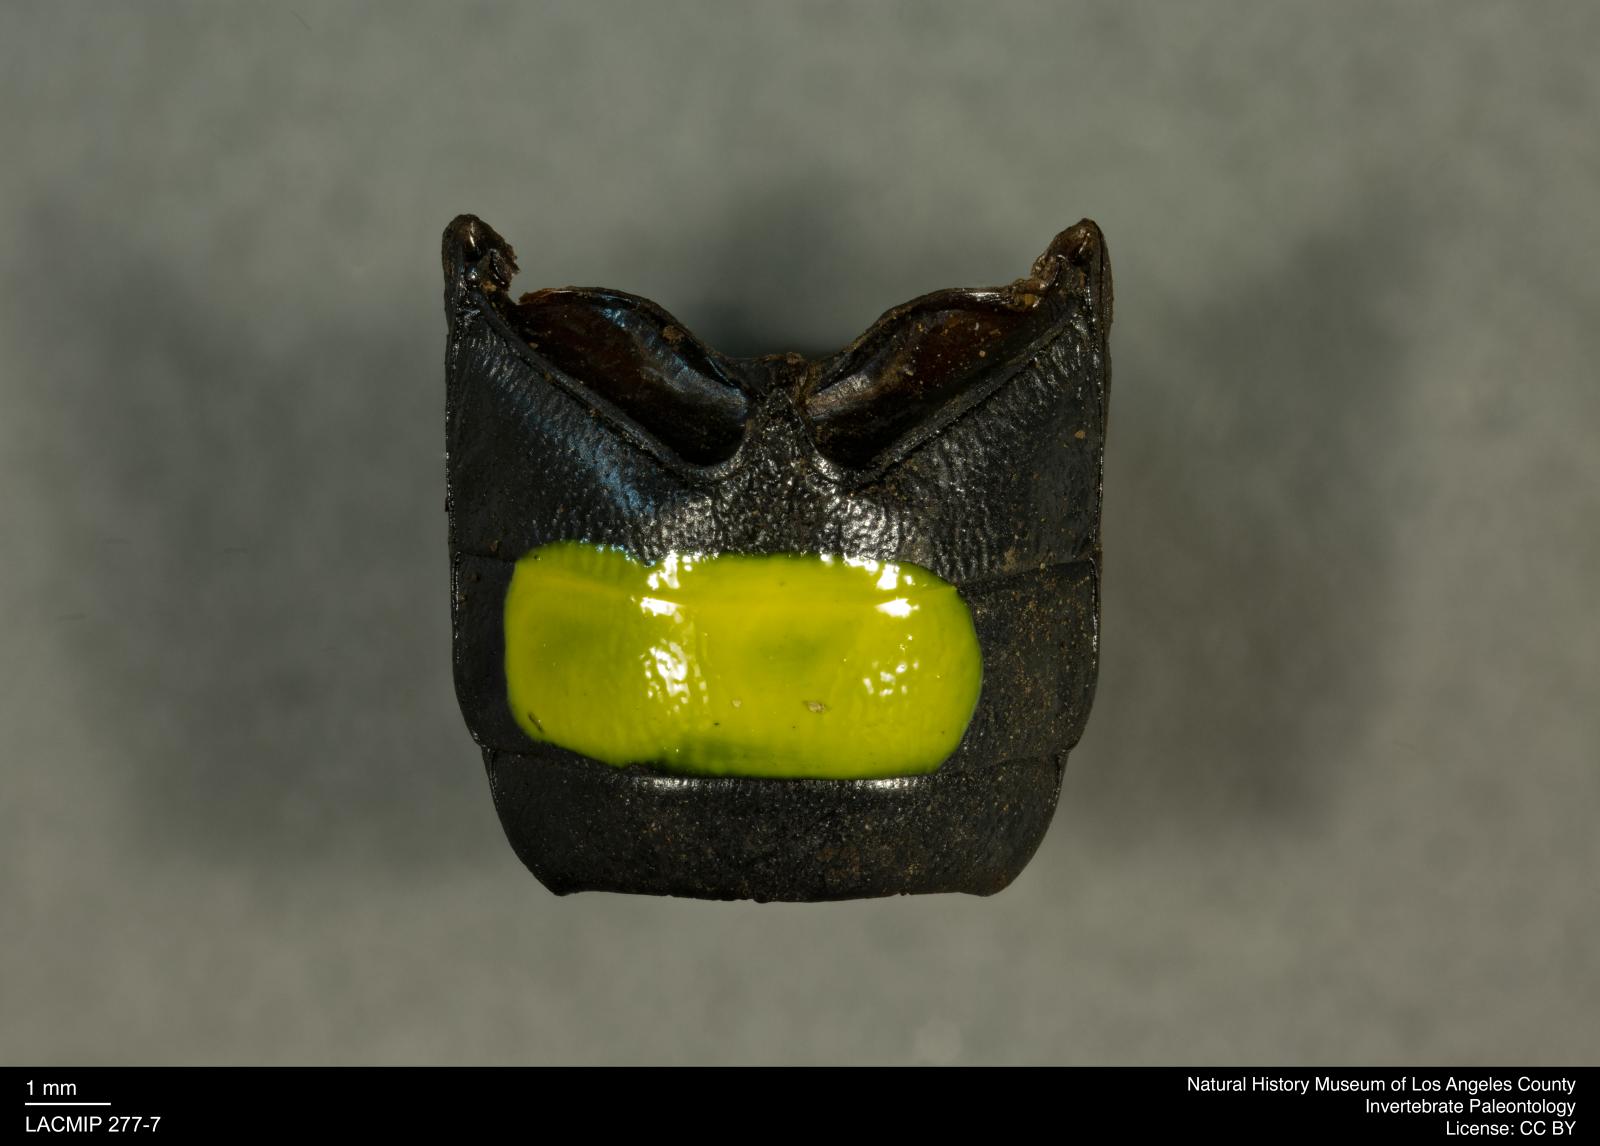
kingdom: Animalia
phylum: Arthropoda
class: Insecta
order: Coleoptera
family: Tenebrionidae
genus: Coniontis
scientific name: Coniontis abdominalis
